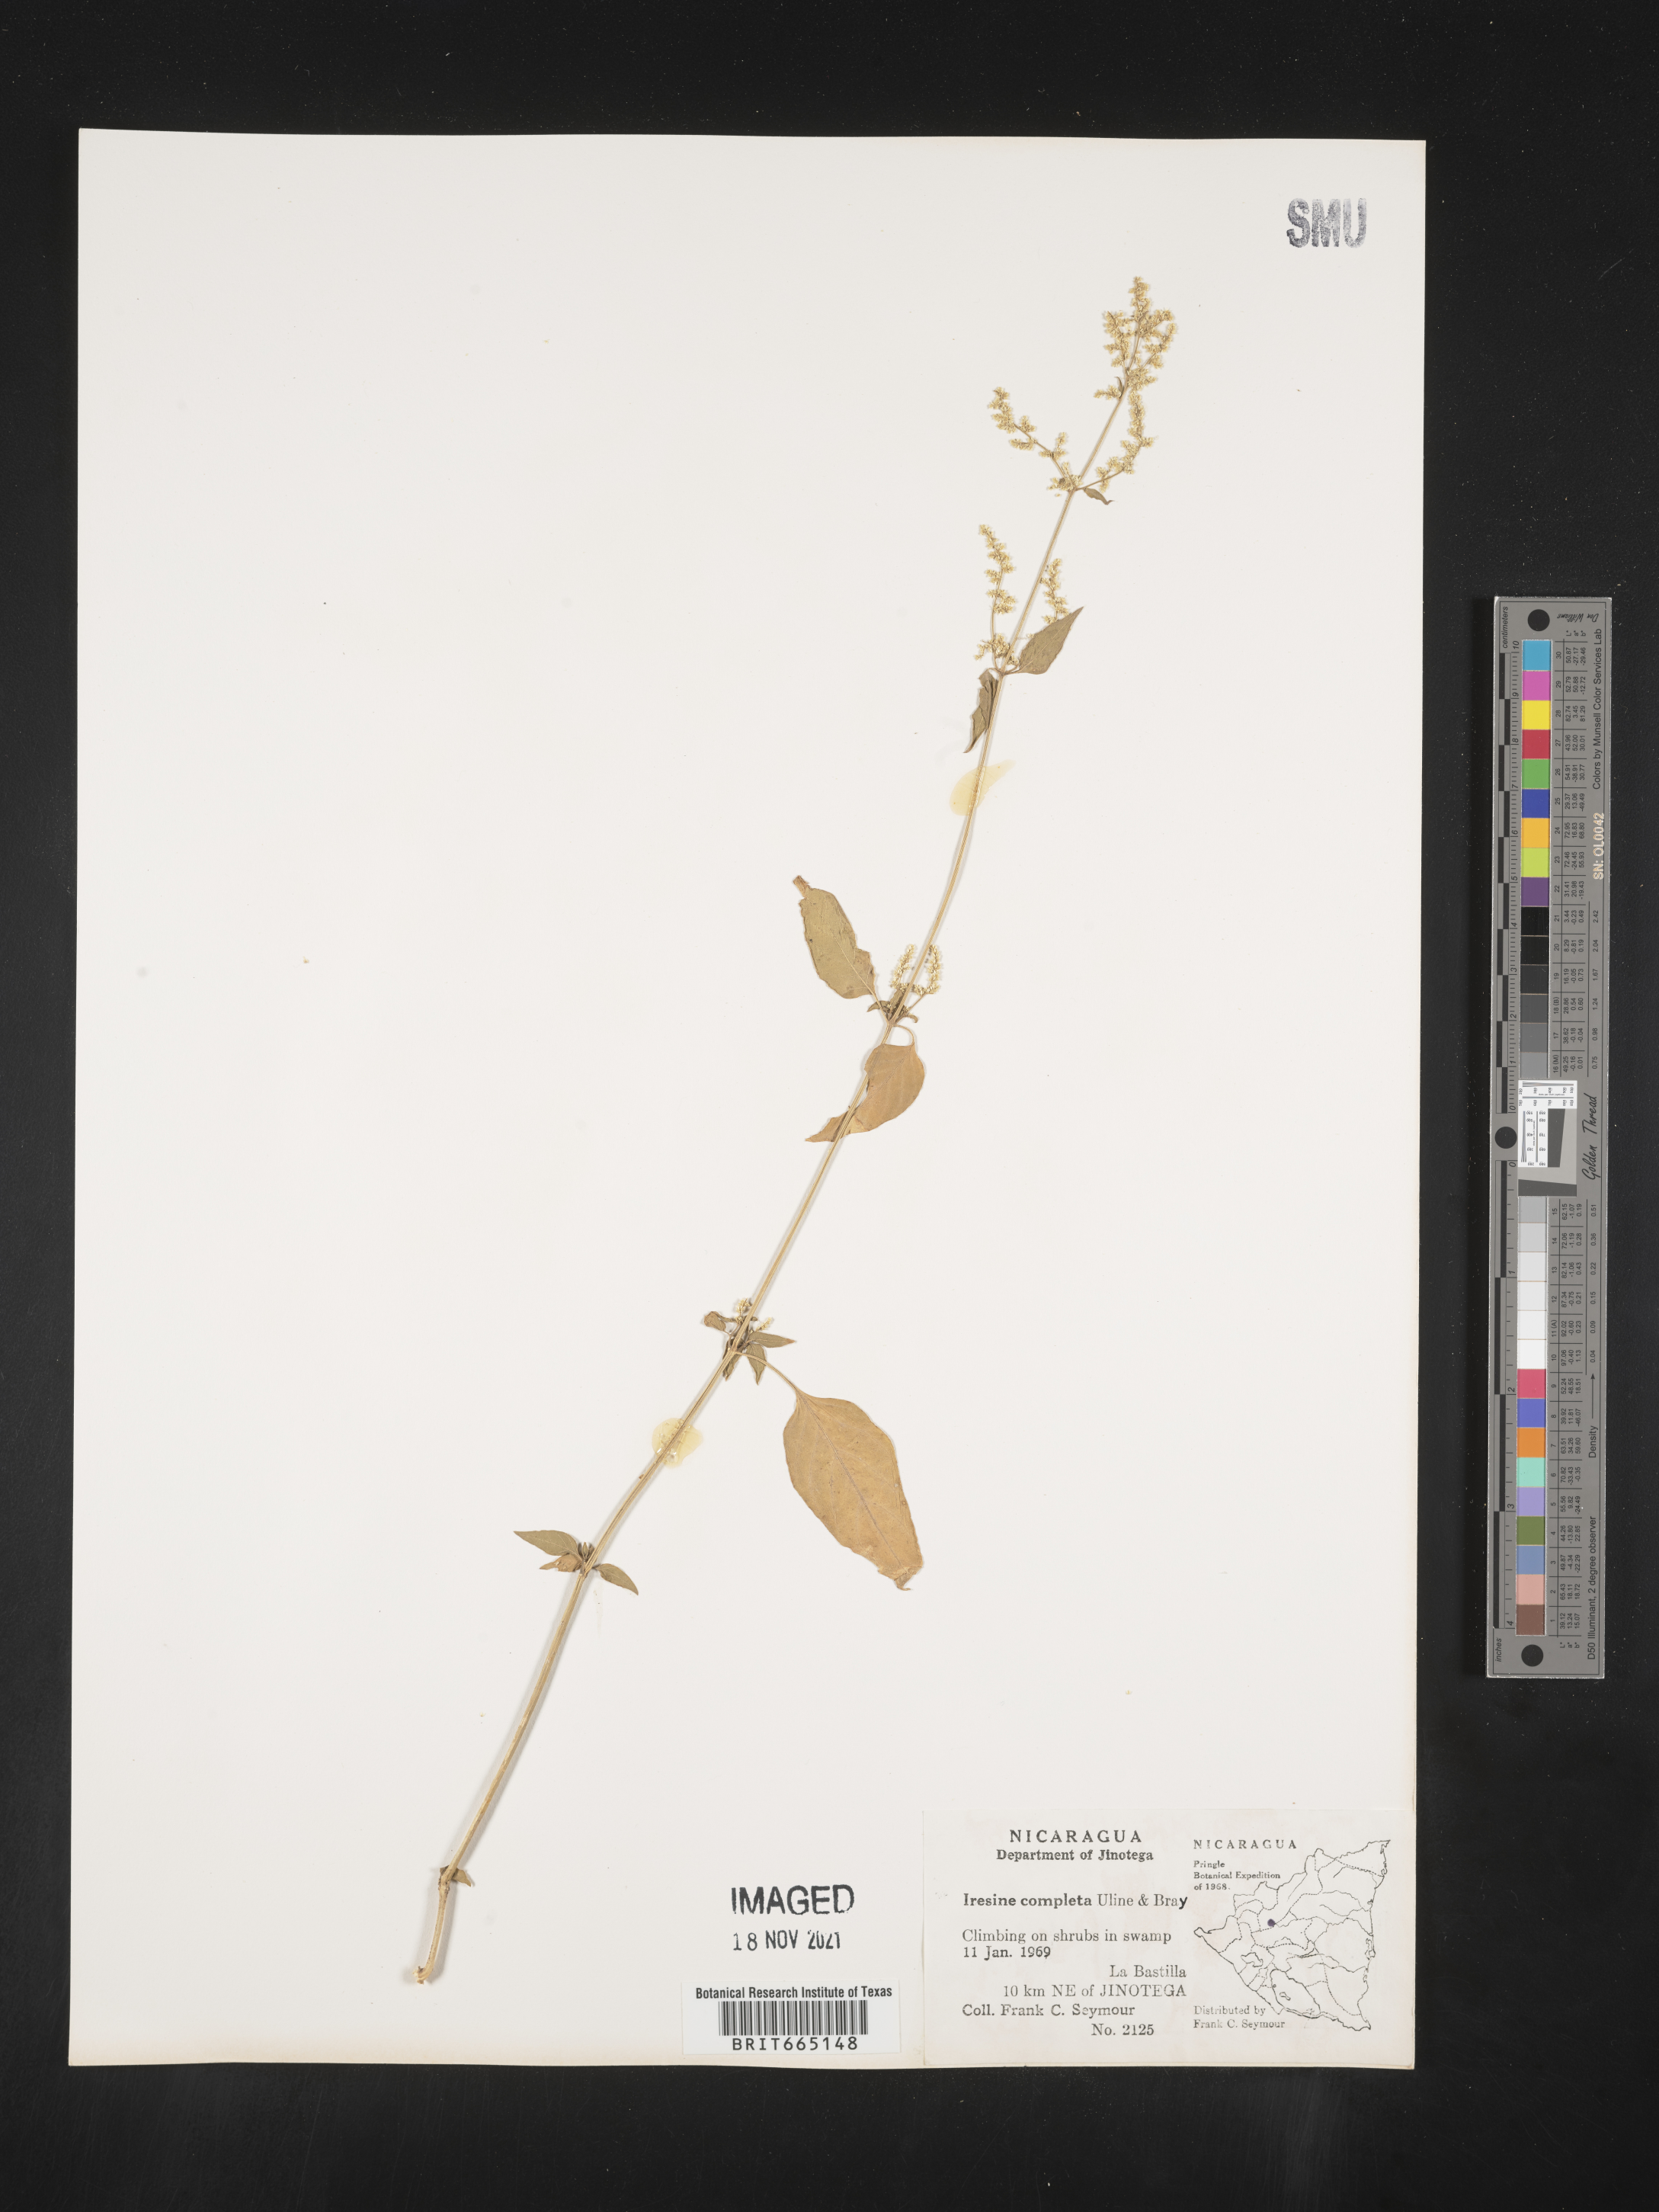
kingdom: Plantae
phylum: Tracheophyta
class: Magnoliopsida
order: Caryophyllales
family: Amaranthaceae
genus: Iresine
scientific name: Iresine
